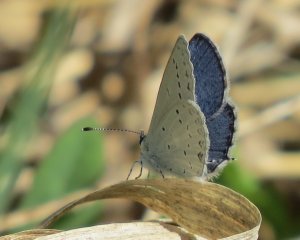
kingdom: Animalia
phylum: Arthropoda
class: Insecta
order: Lepidoptera
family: Lycaenidae
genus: Elkalyce
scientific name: Elkalyce amyntula
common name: Western Tailed-Blue
